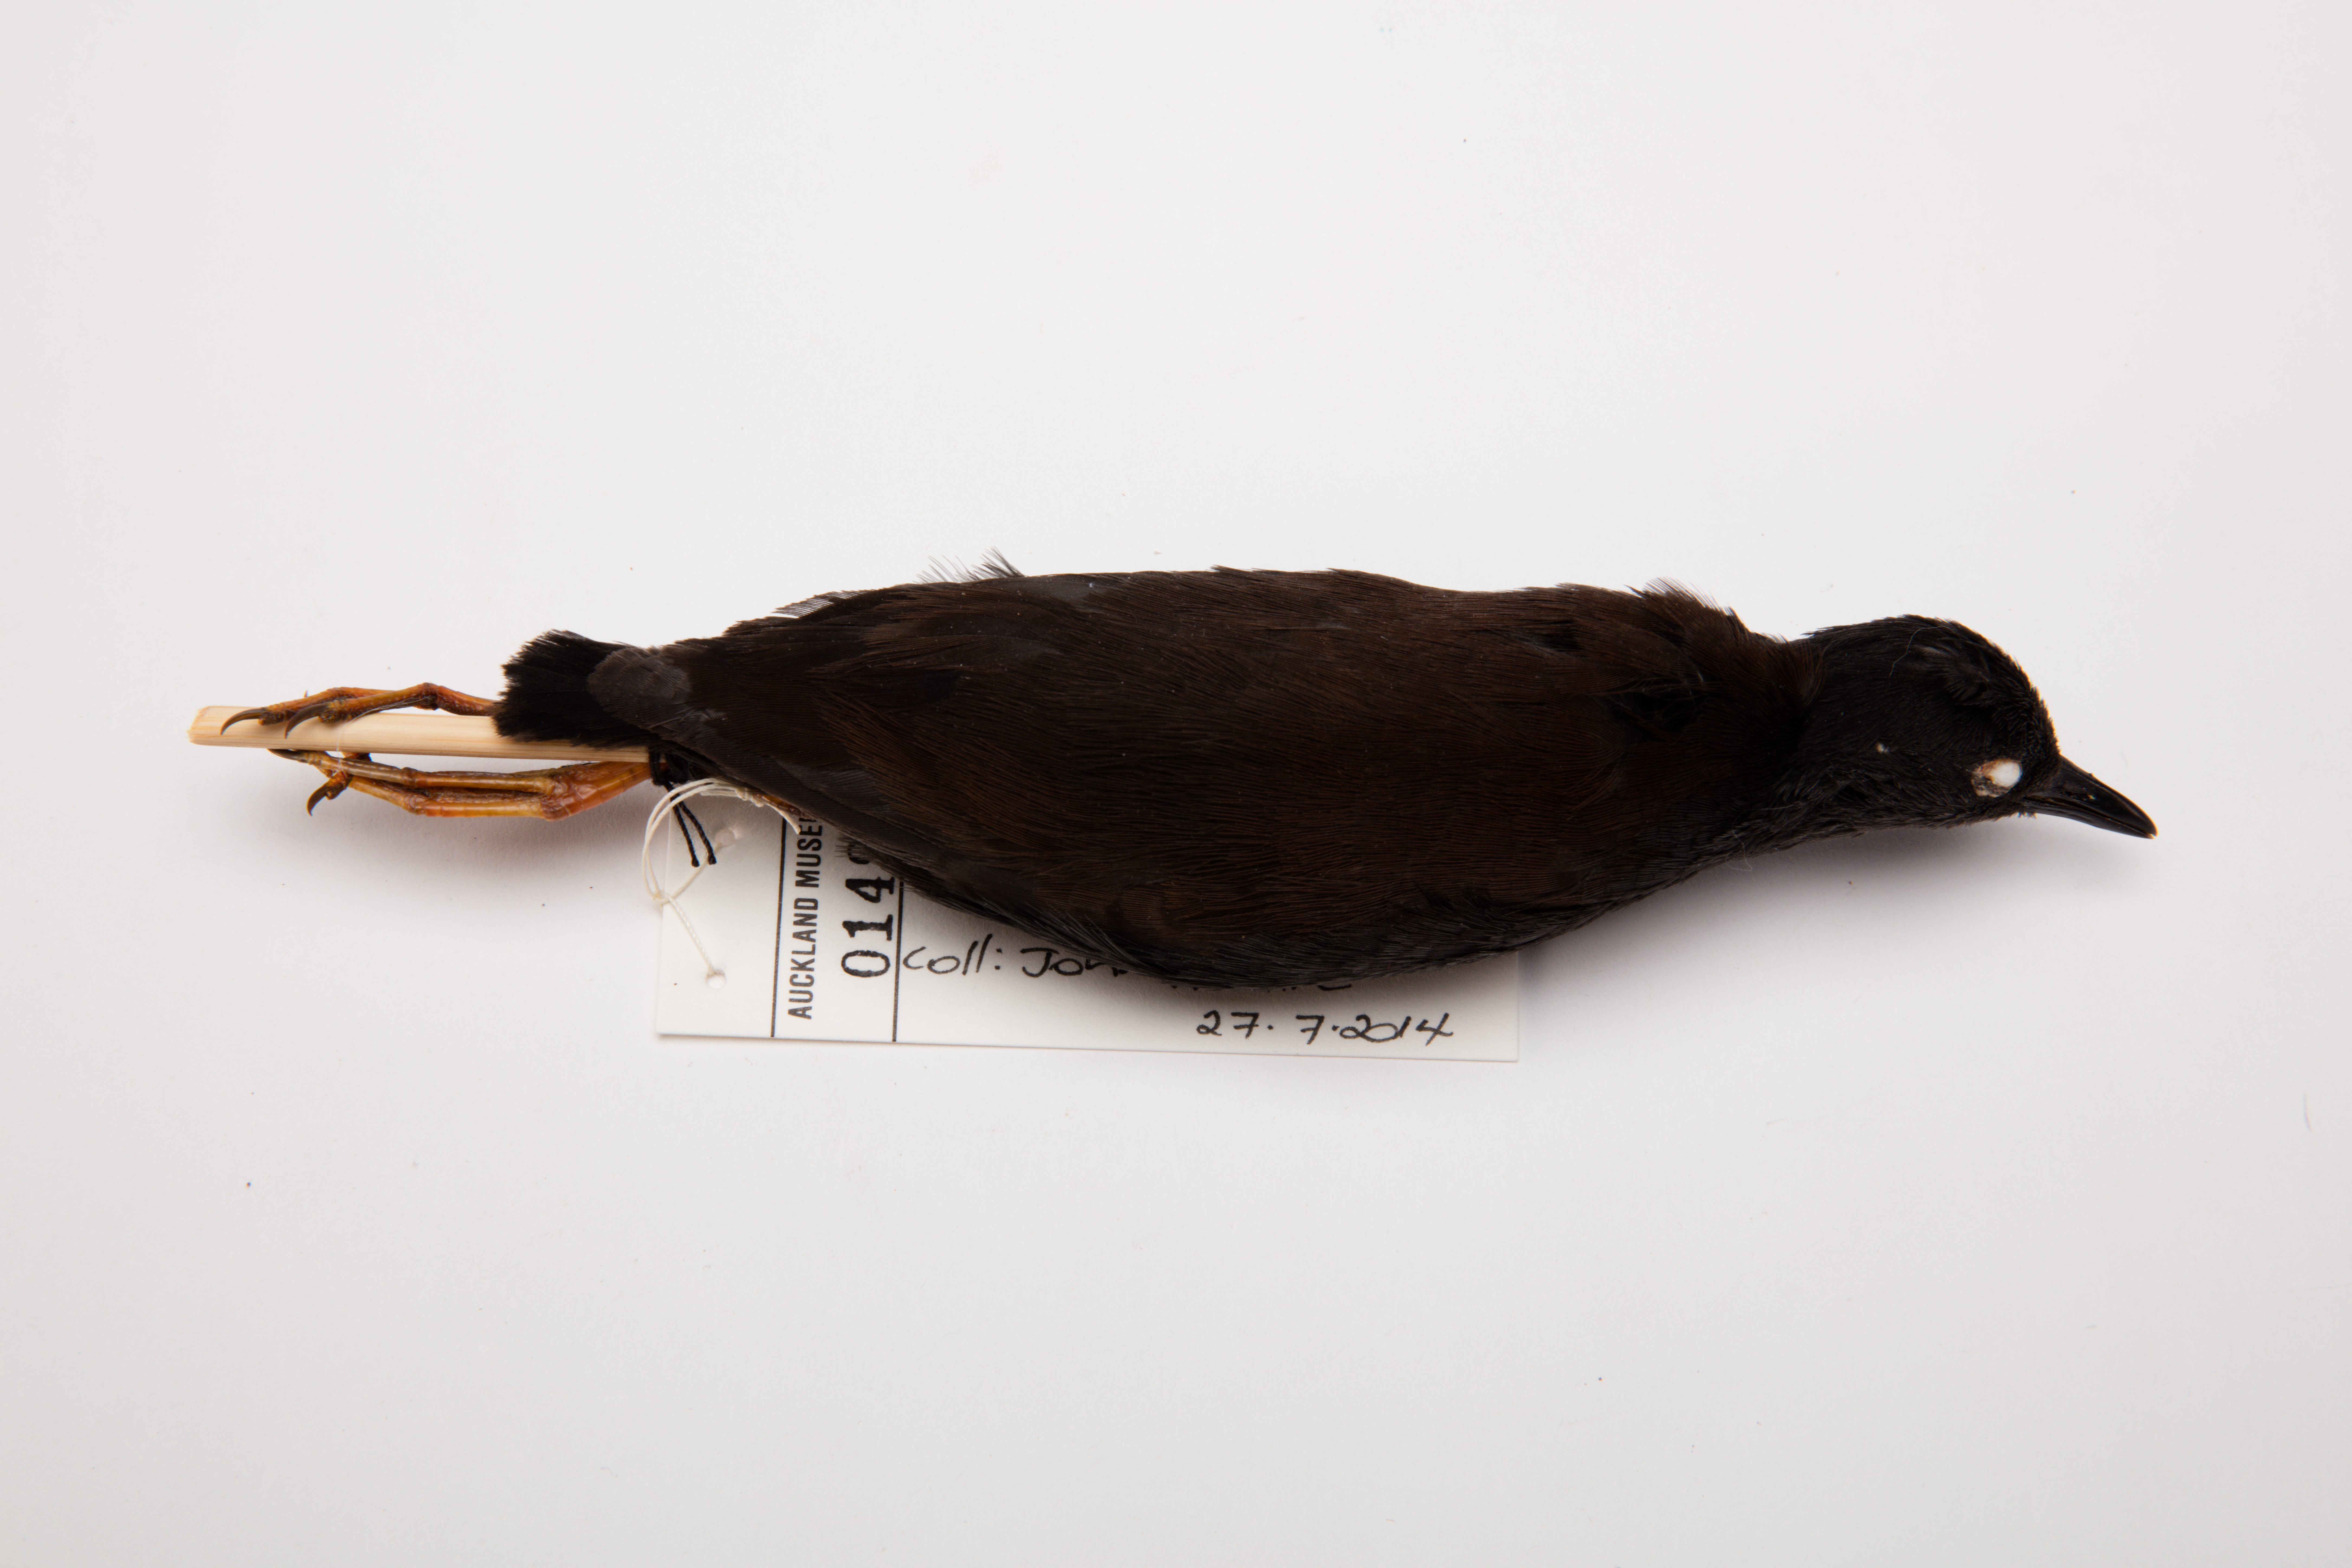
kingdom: Animalia
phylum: Chordata
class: Aves
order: Gruiformes
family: Rallidae
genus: Porzana
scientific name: Porzana tabuensis
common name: Spotless crake
